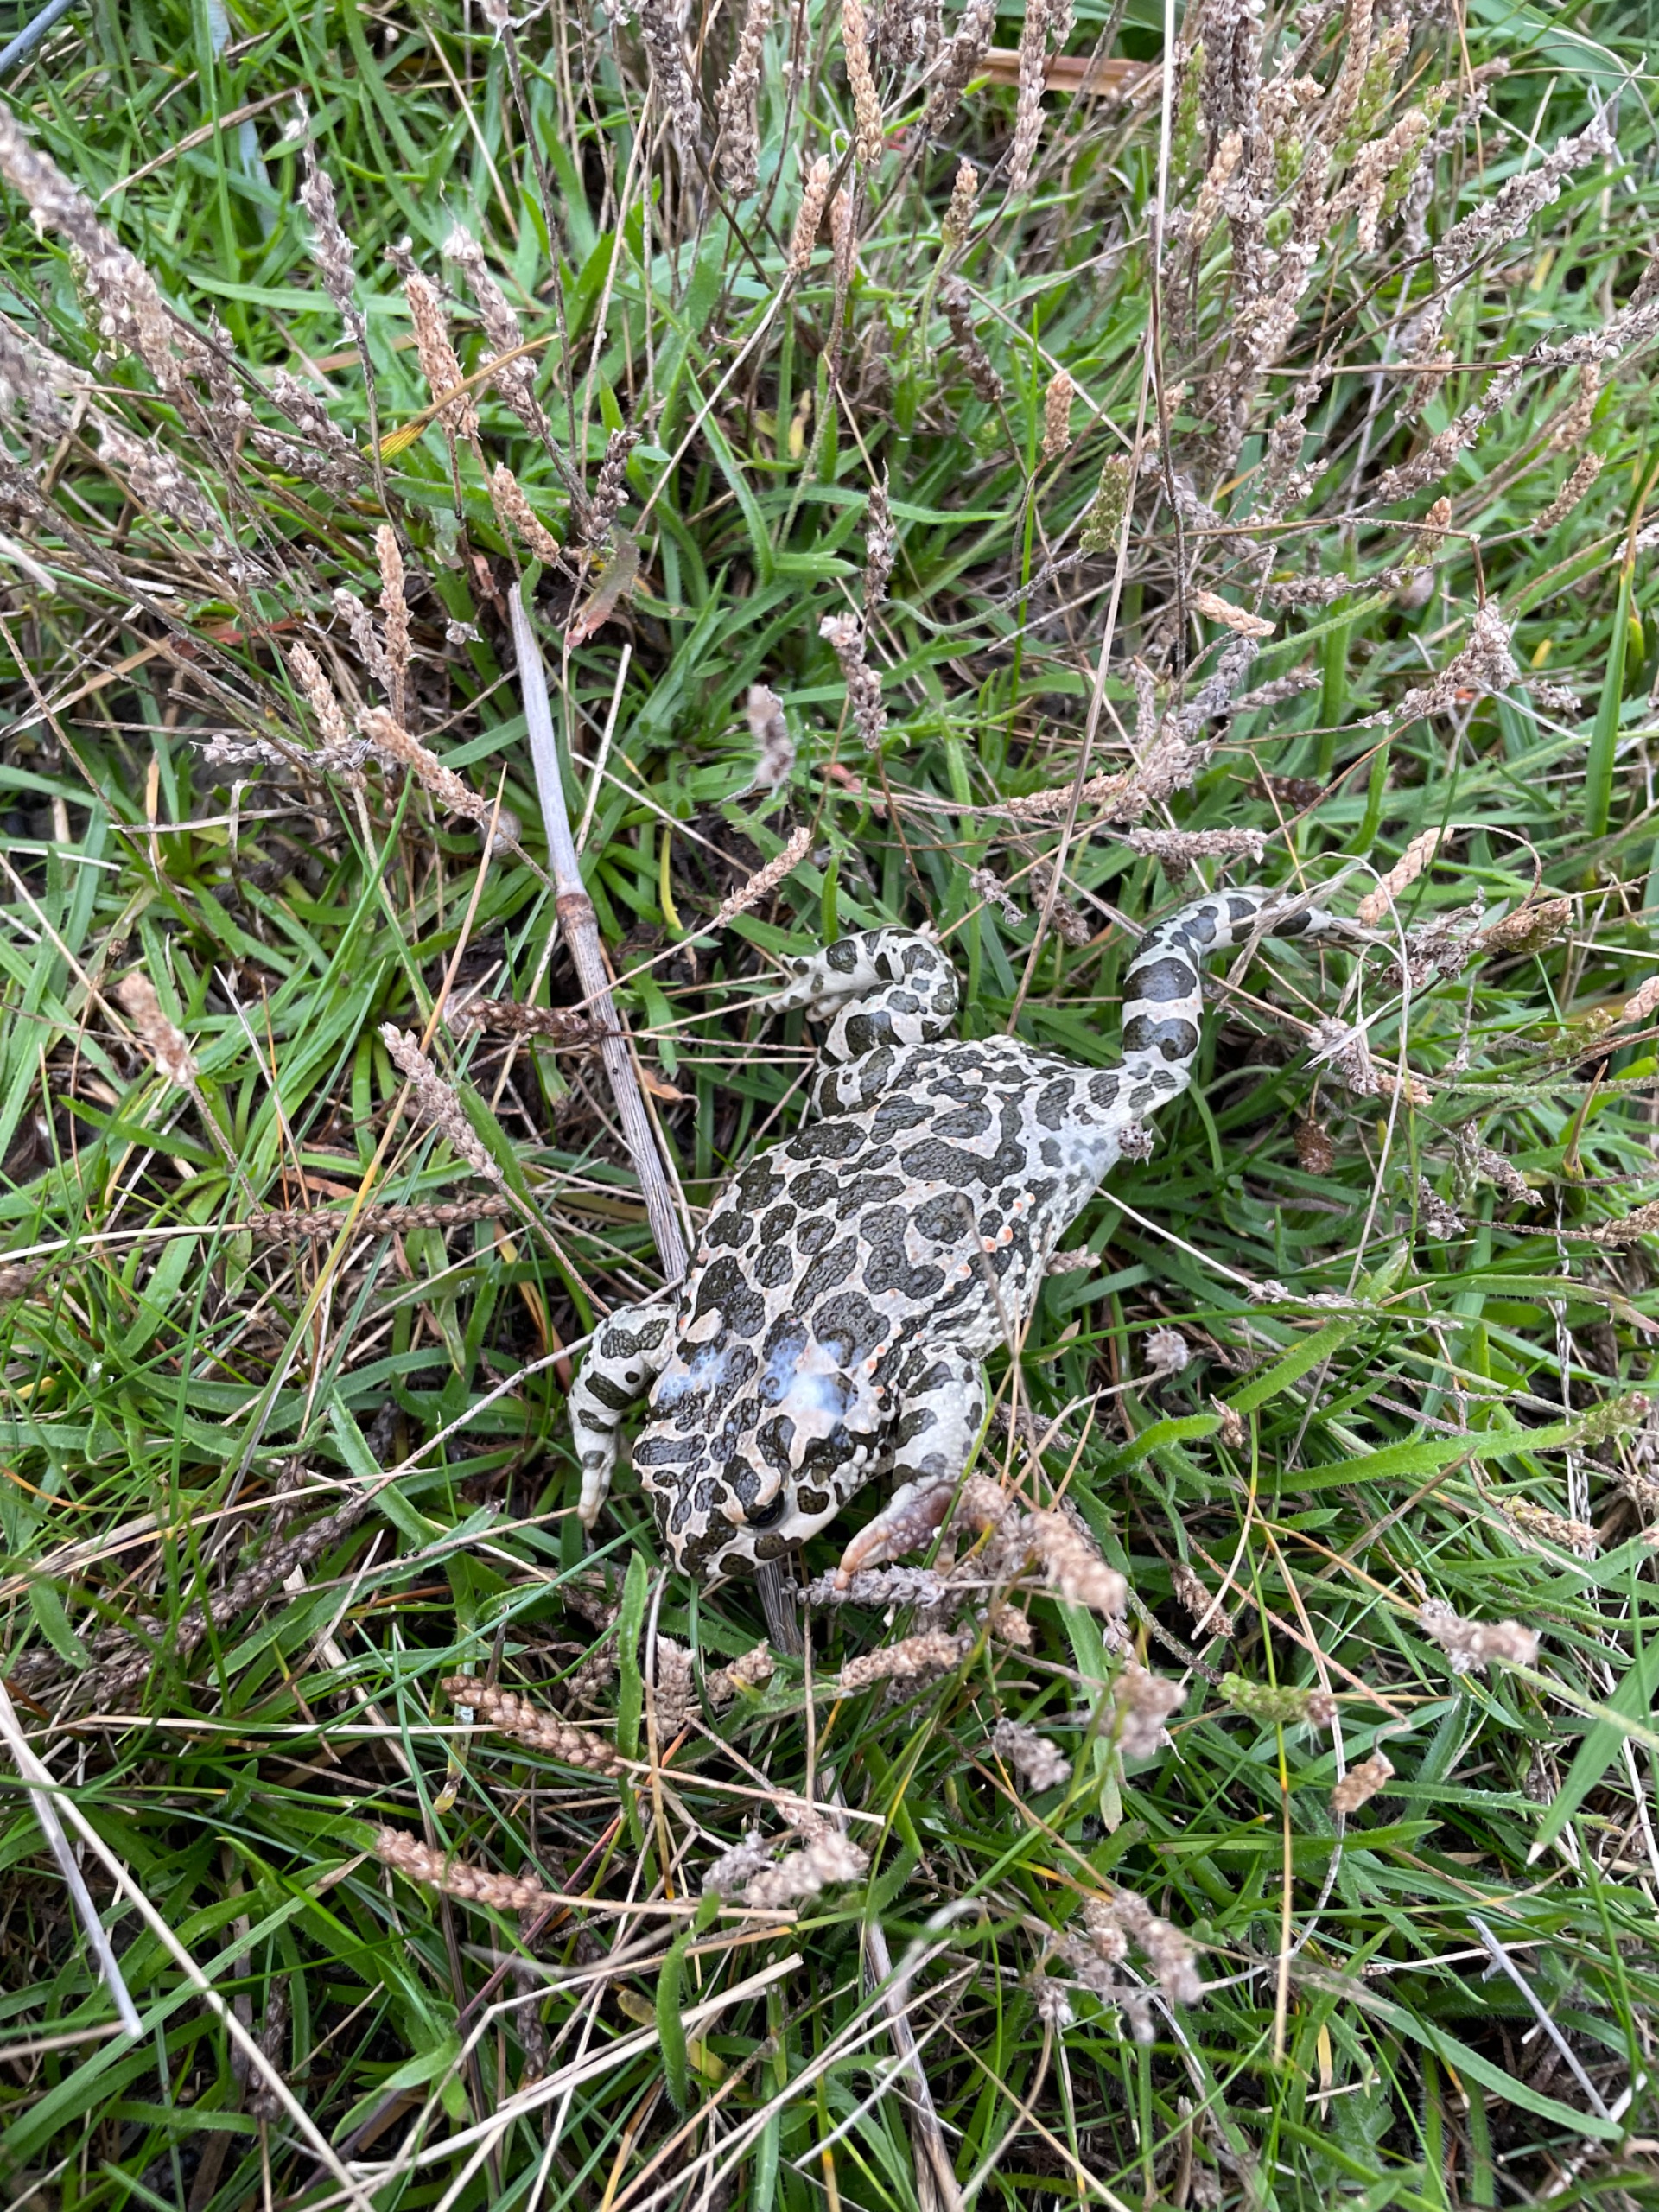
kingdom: Animalia
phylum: Chordata
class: Amphibia
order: Anura
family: Bufonidae
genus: Bufotes
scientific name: Bufotes viridis
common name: Grønbroget tudse
